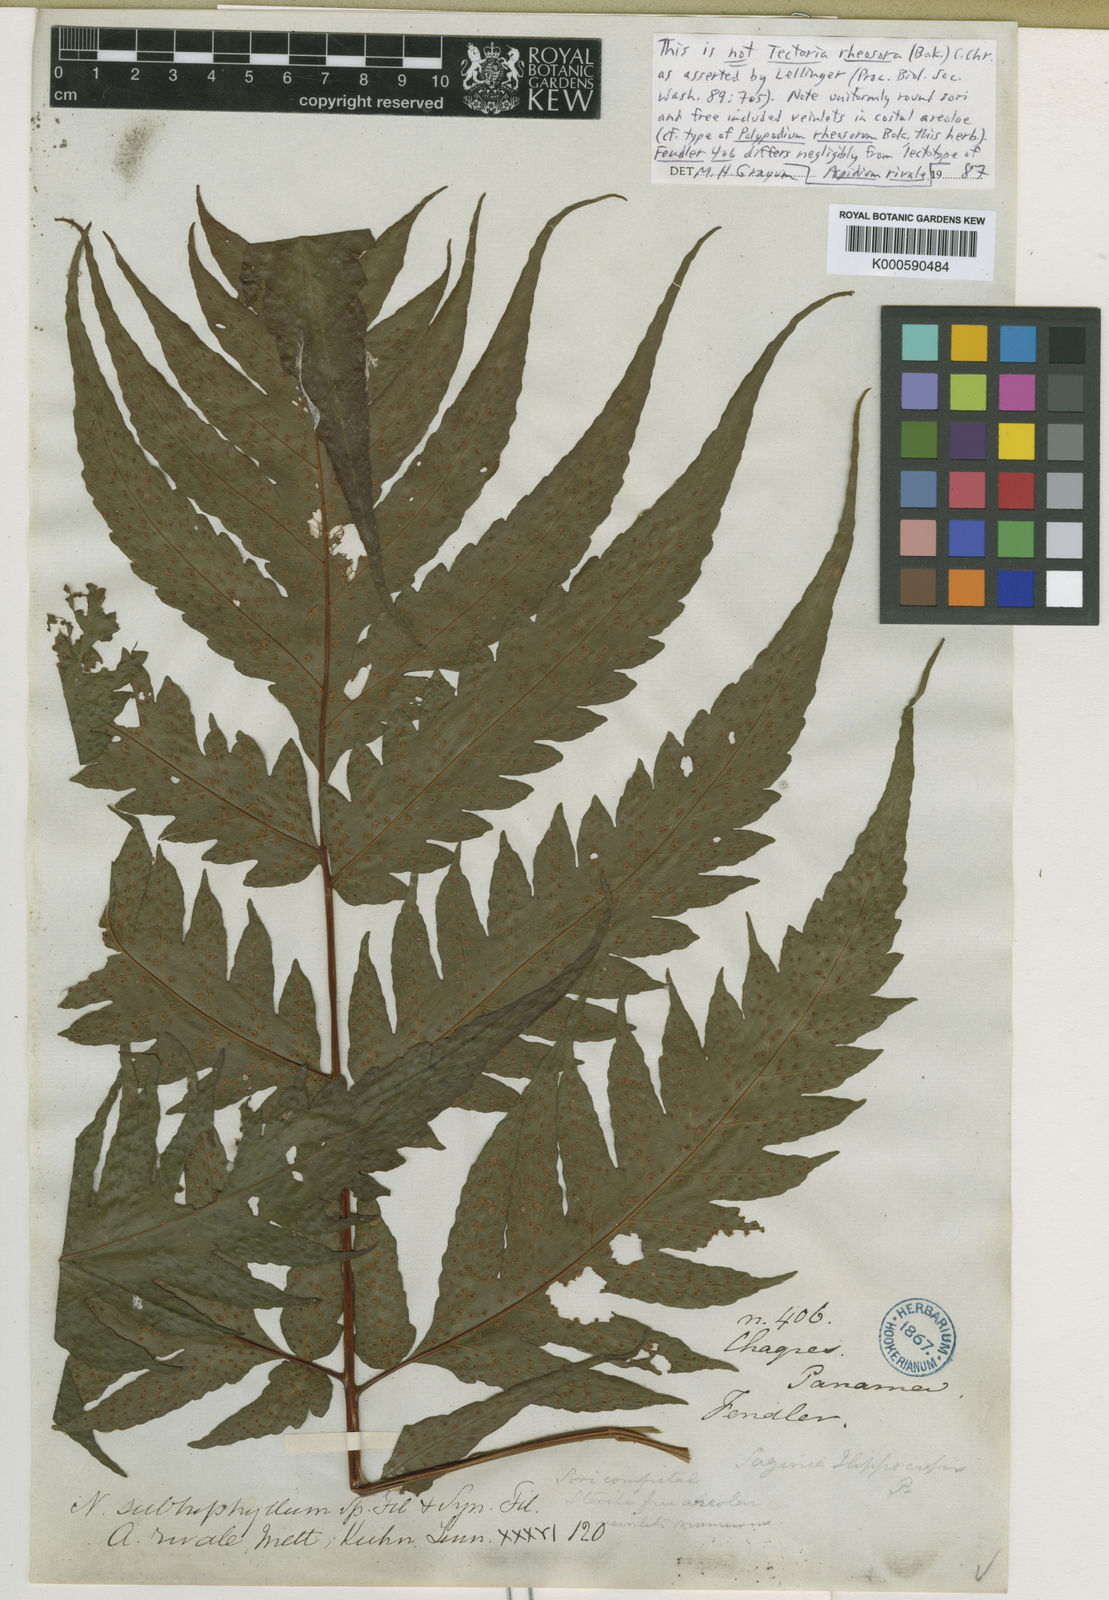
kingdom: Plantae
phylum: Tracheophyta
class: Polypodiopsida
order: Polypodiales
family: Tectariaceae
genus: Tectaria
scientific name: Tectaria Aspidium spec
